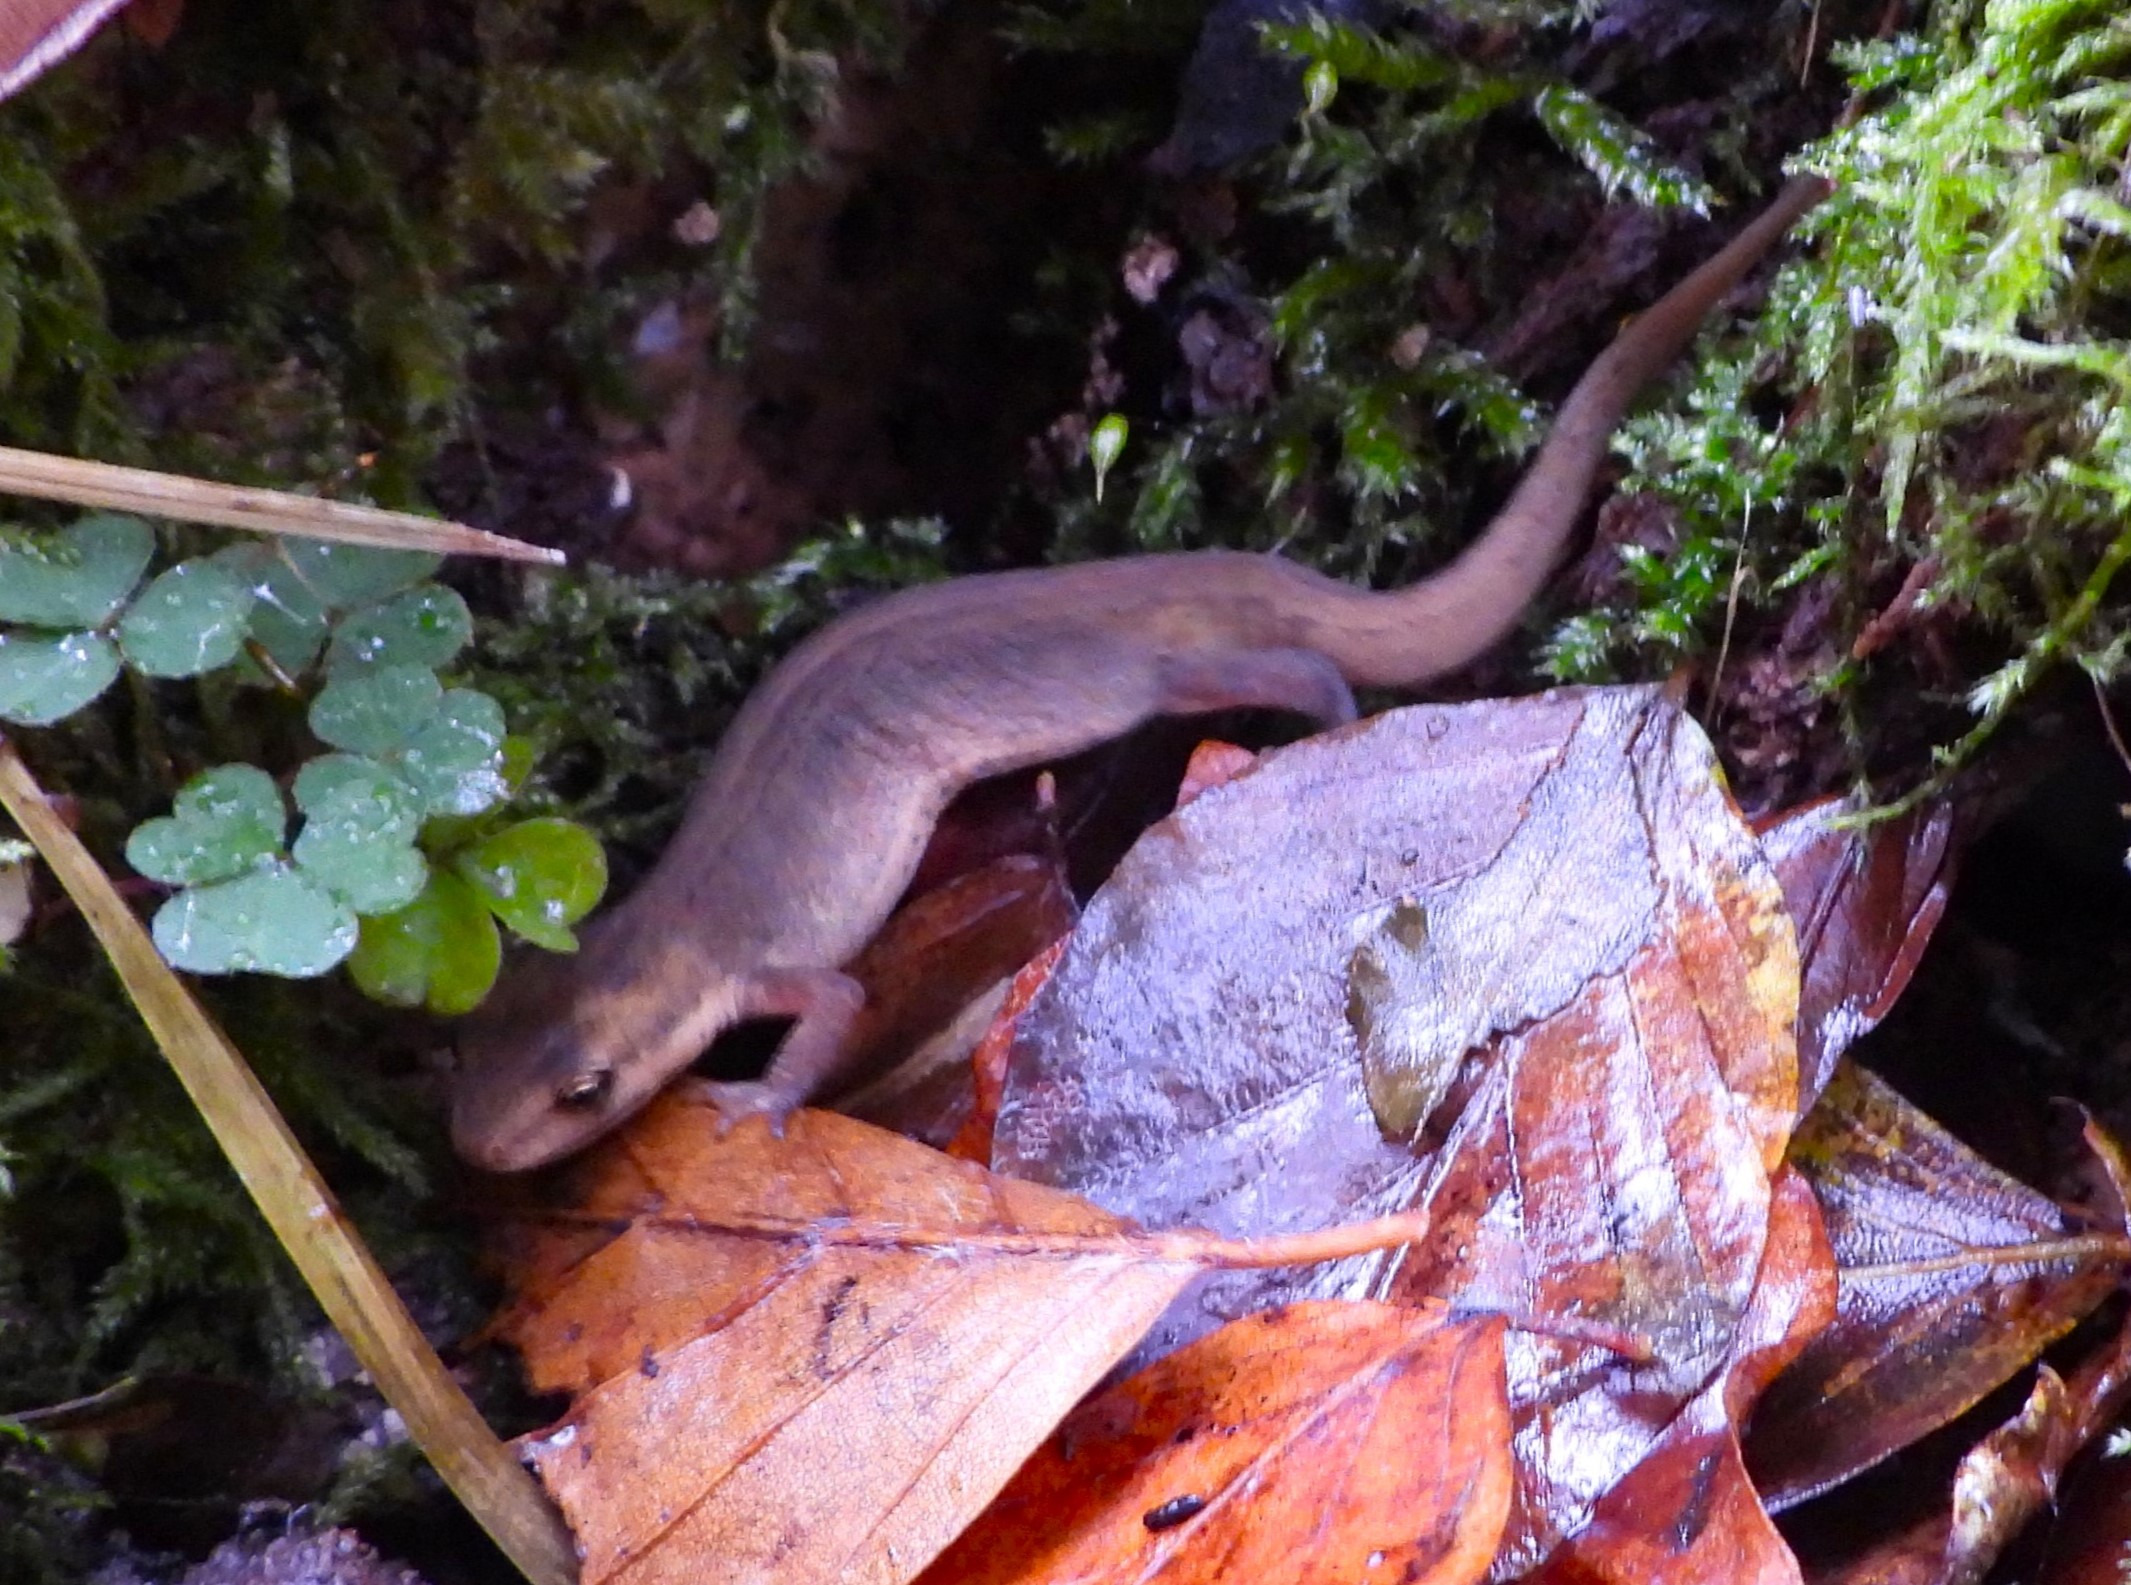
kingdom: Animalia
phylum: Chordata
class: Amphibia
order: Caudata
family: Salamandridae
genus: Lissotriton
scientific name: Lissotriton vulgaris
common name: Lille vandsalamander
